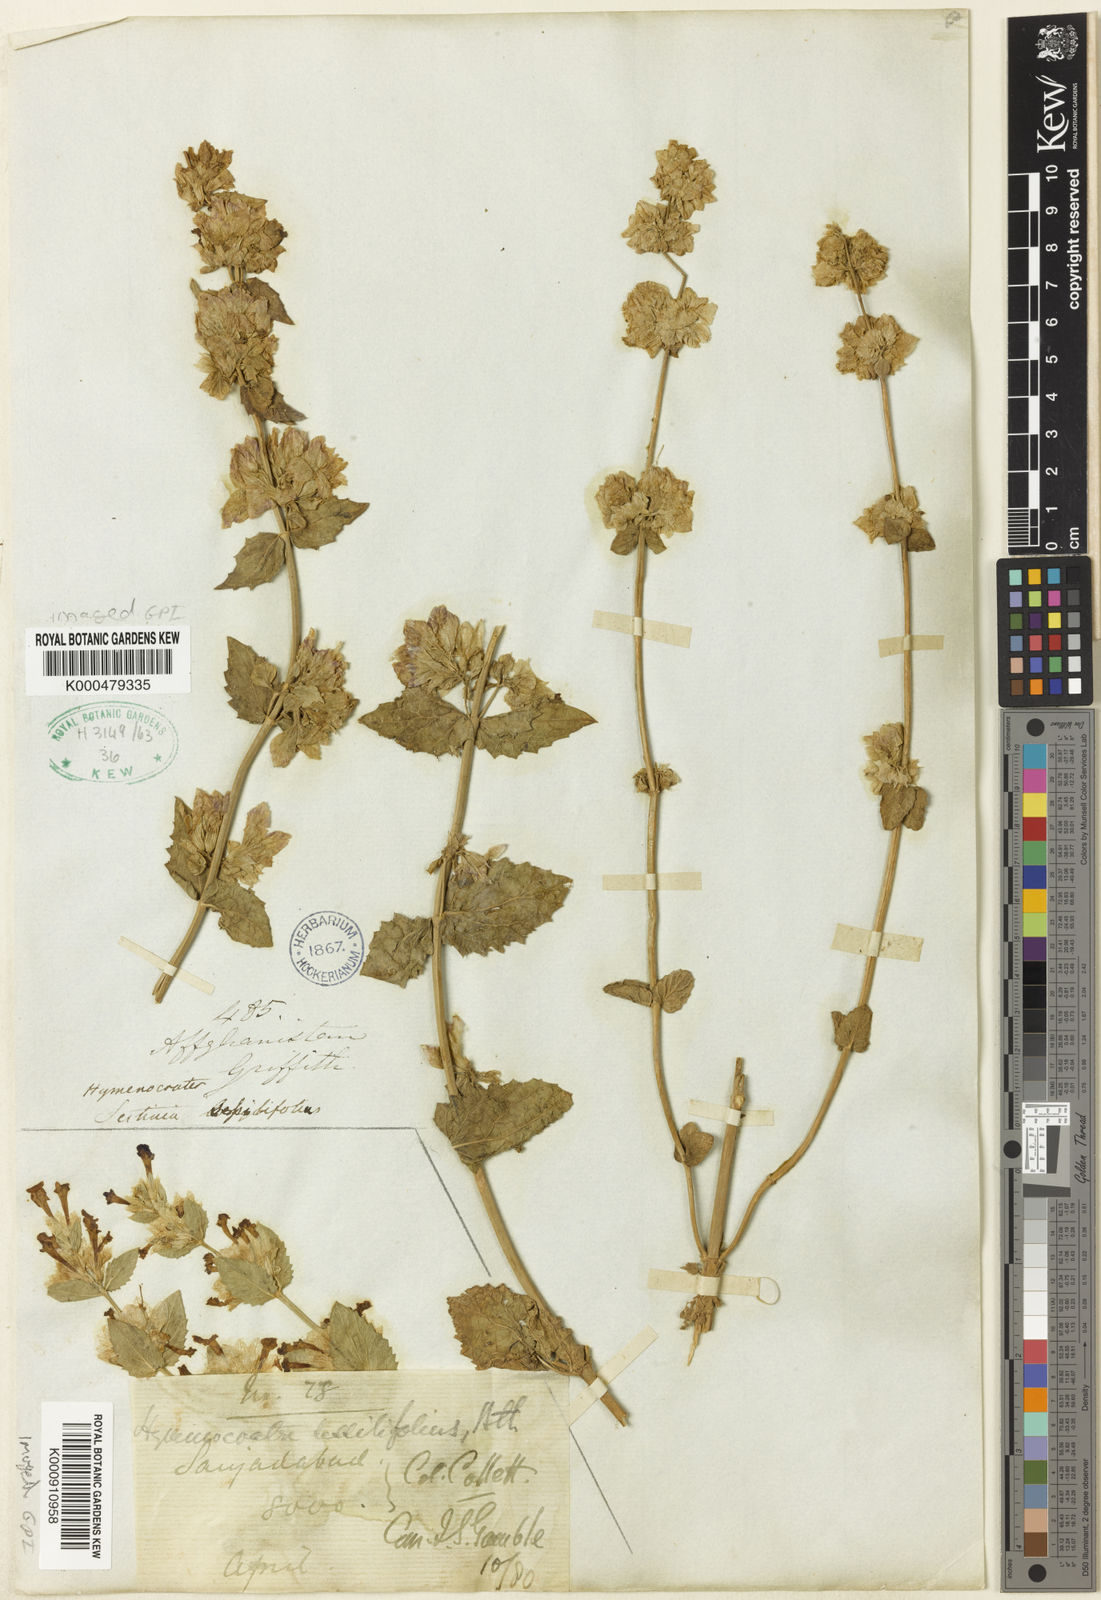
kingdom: Plantae
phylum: Tracheophyta
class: Magnoliopsida
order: Lamiales
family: Lamiaceae
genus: Nepeta
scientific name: Nepeta argutidens
